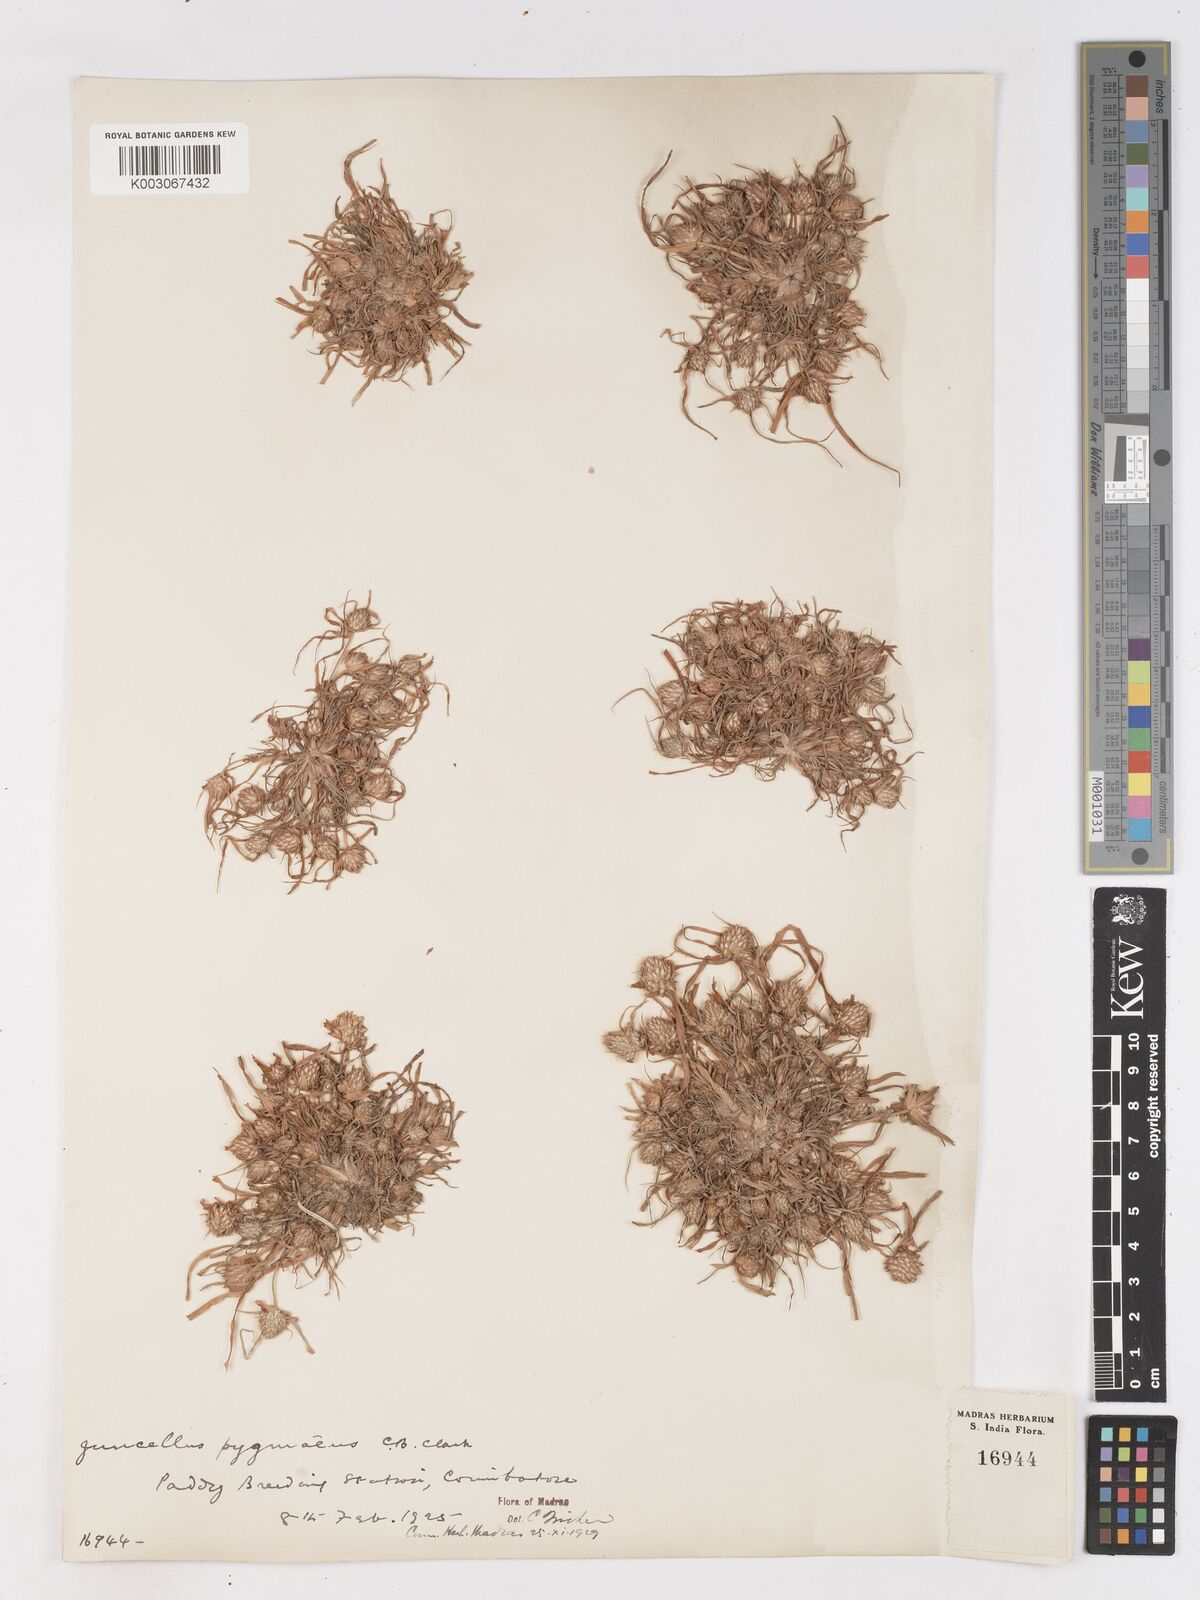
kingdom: Plantae
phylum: Tracheophyta
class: Liliopsida
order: Poales
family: Cyperaceae
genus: Cyperus
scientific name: Cyperus michelianus
